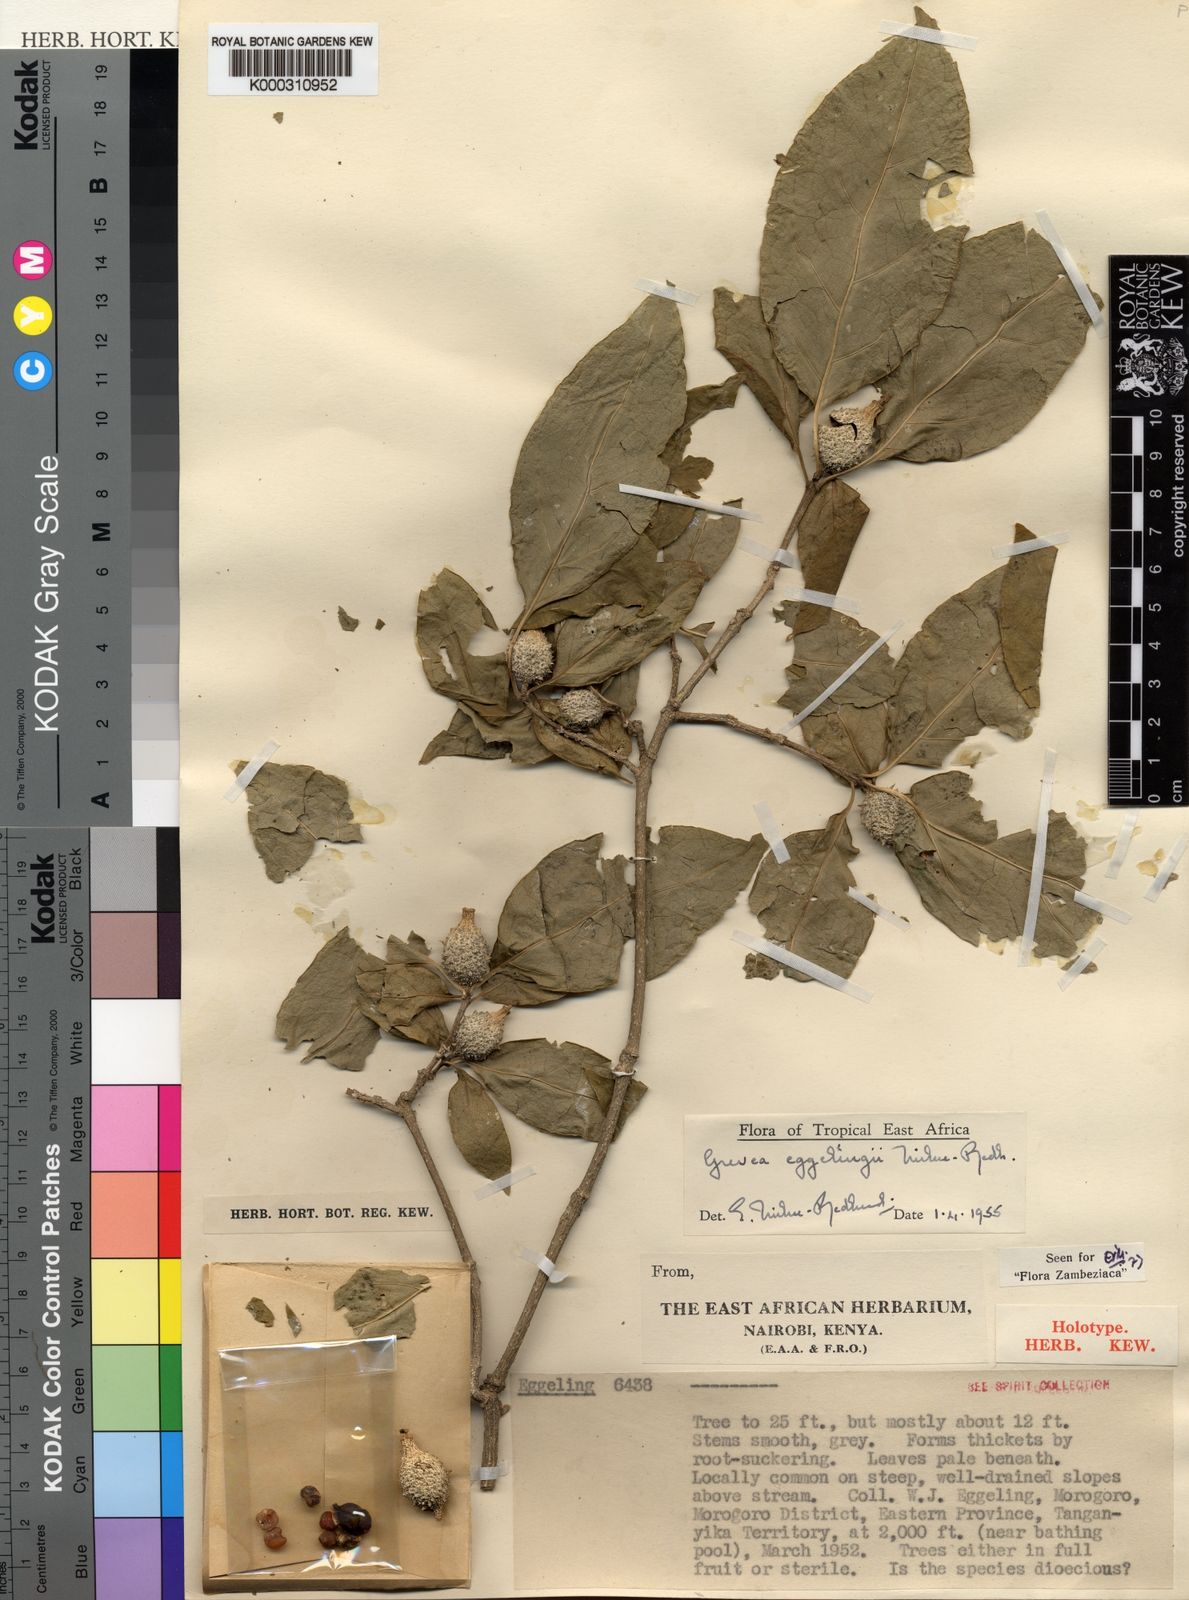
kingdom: Plantae
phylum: Tracheophyta
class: Magnoliopsida
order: Solanales
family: Montiniaceae
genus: Montinia
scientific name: Montinia
